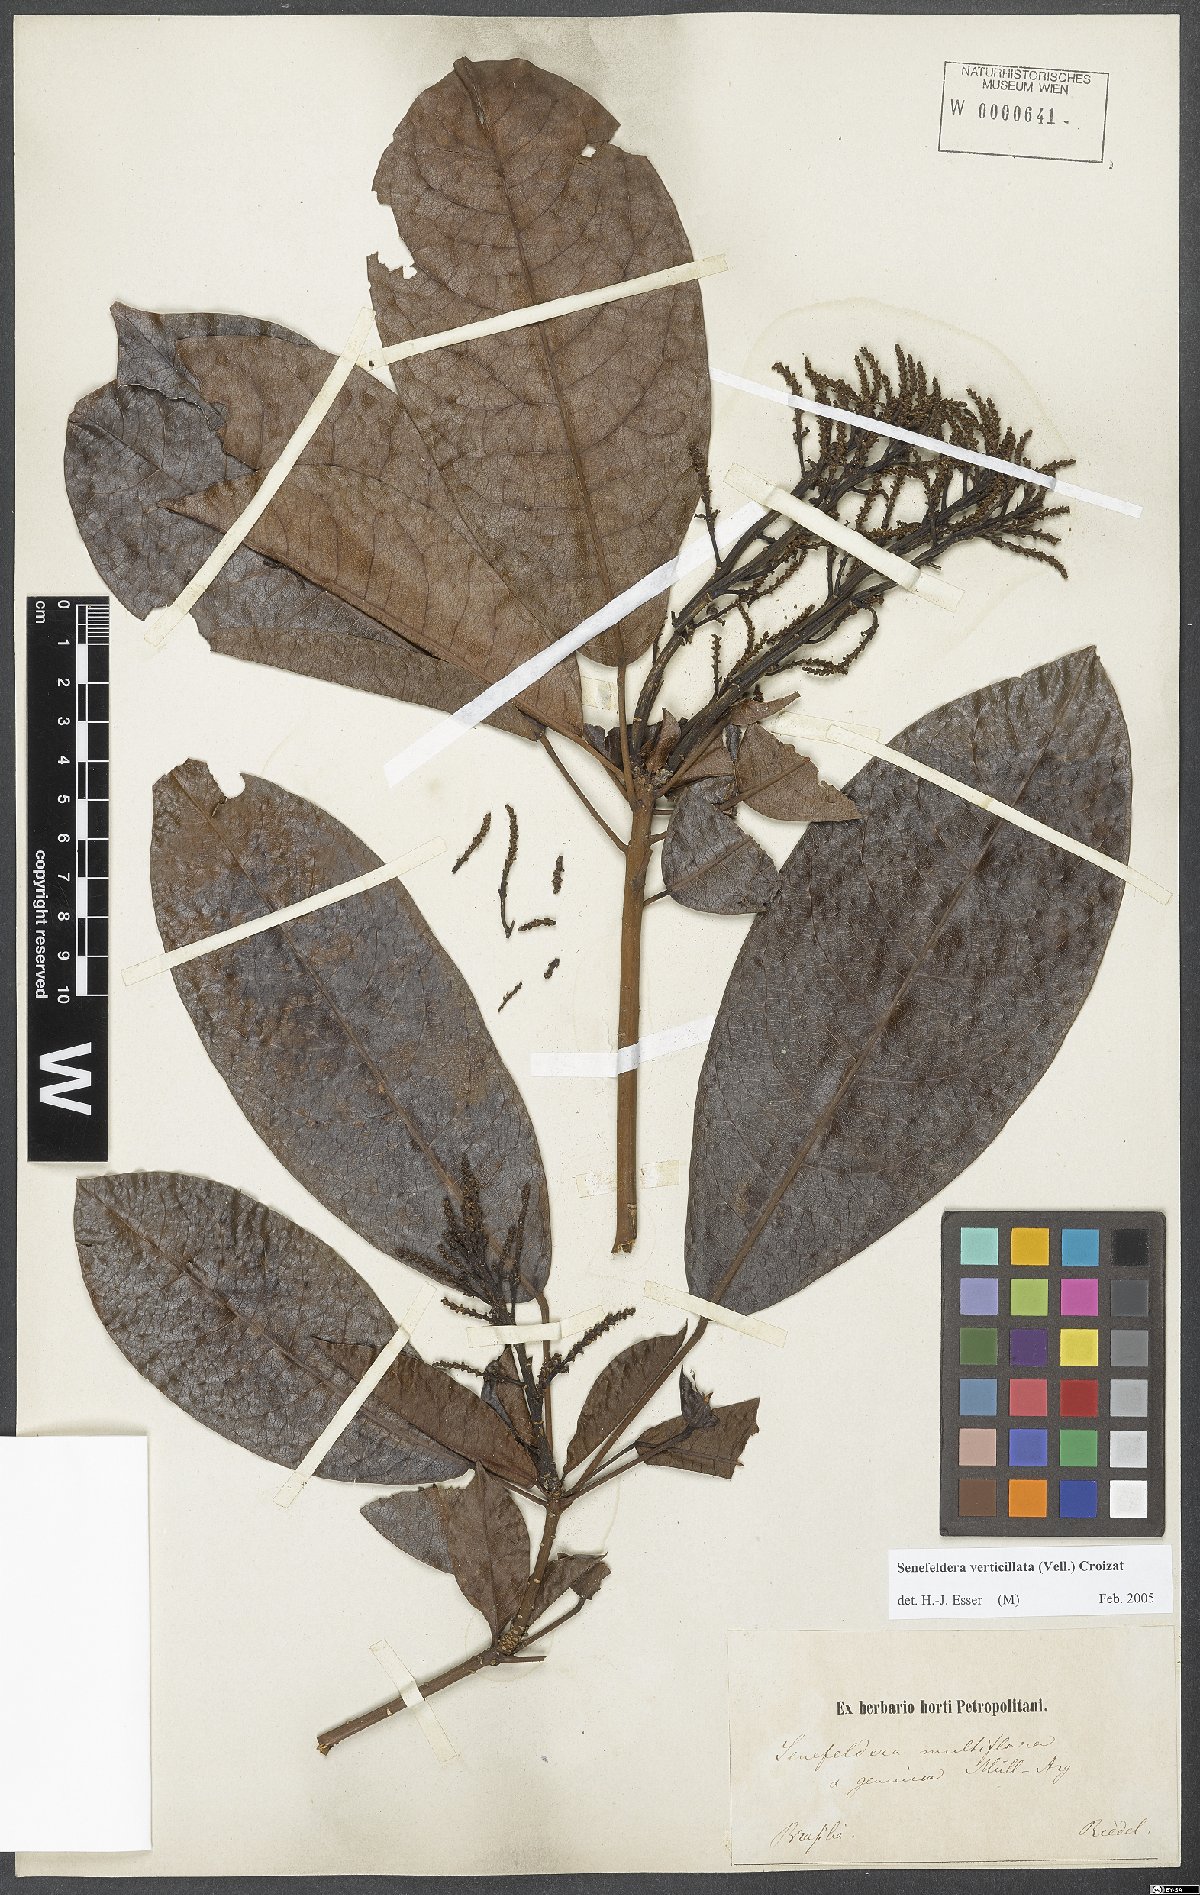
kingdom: Plantae
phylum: Tracheophyta
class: Magnoliopsida
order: Malpighiales
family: Euphorbiaceae
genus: Senefeldera
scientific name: Senefeldera verticillata
